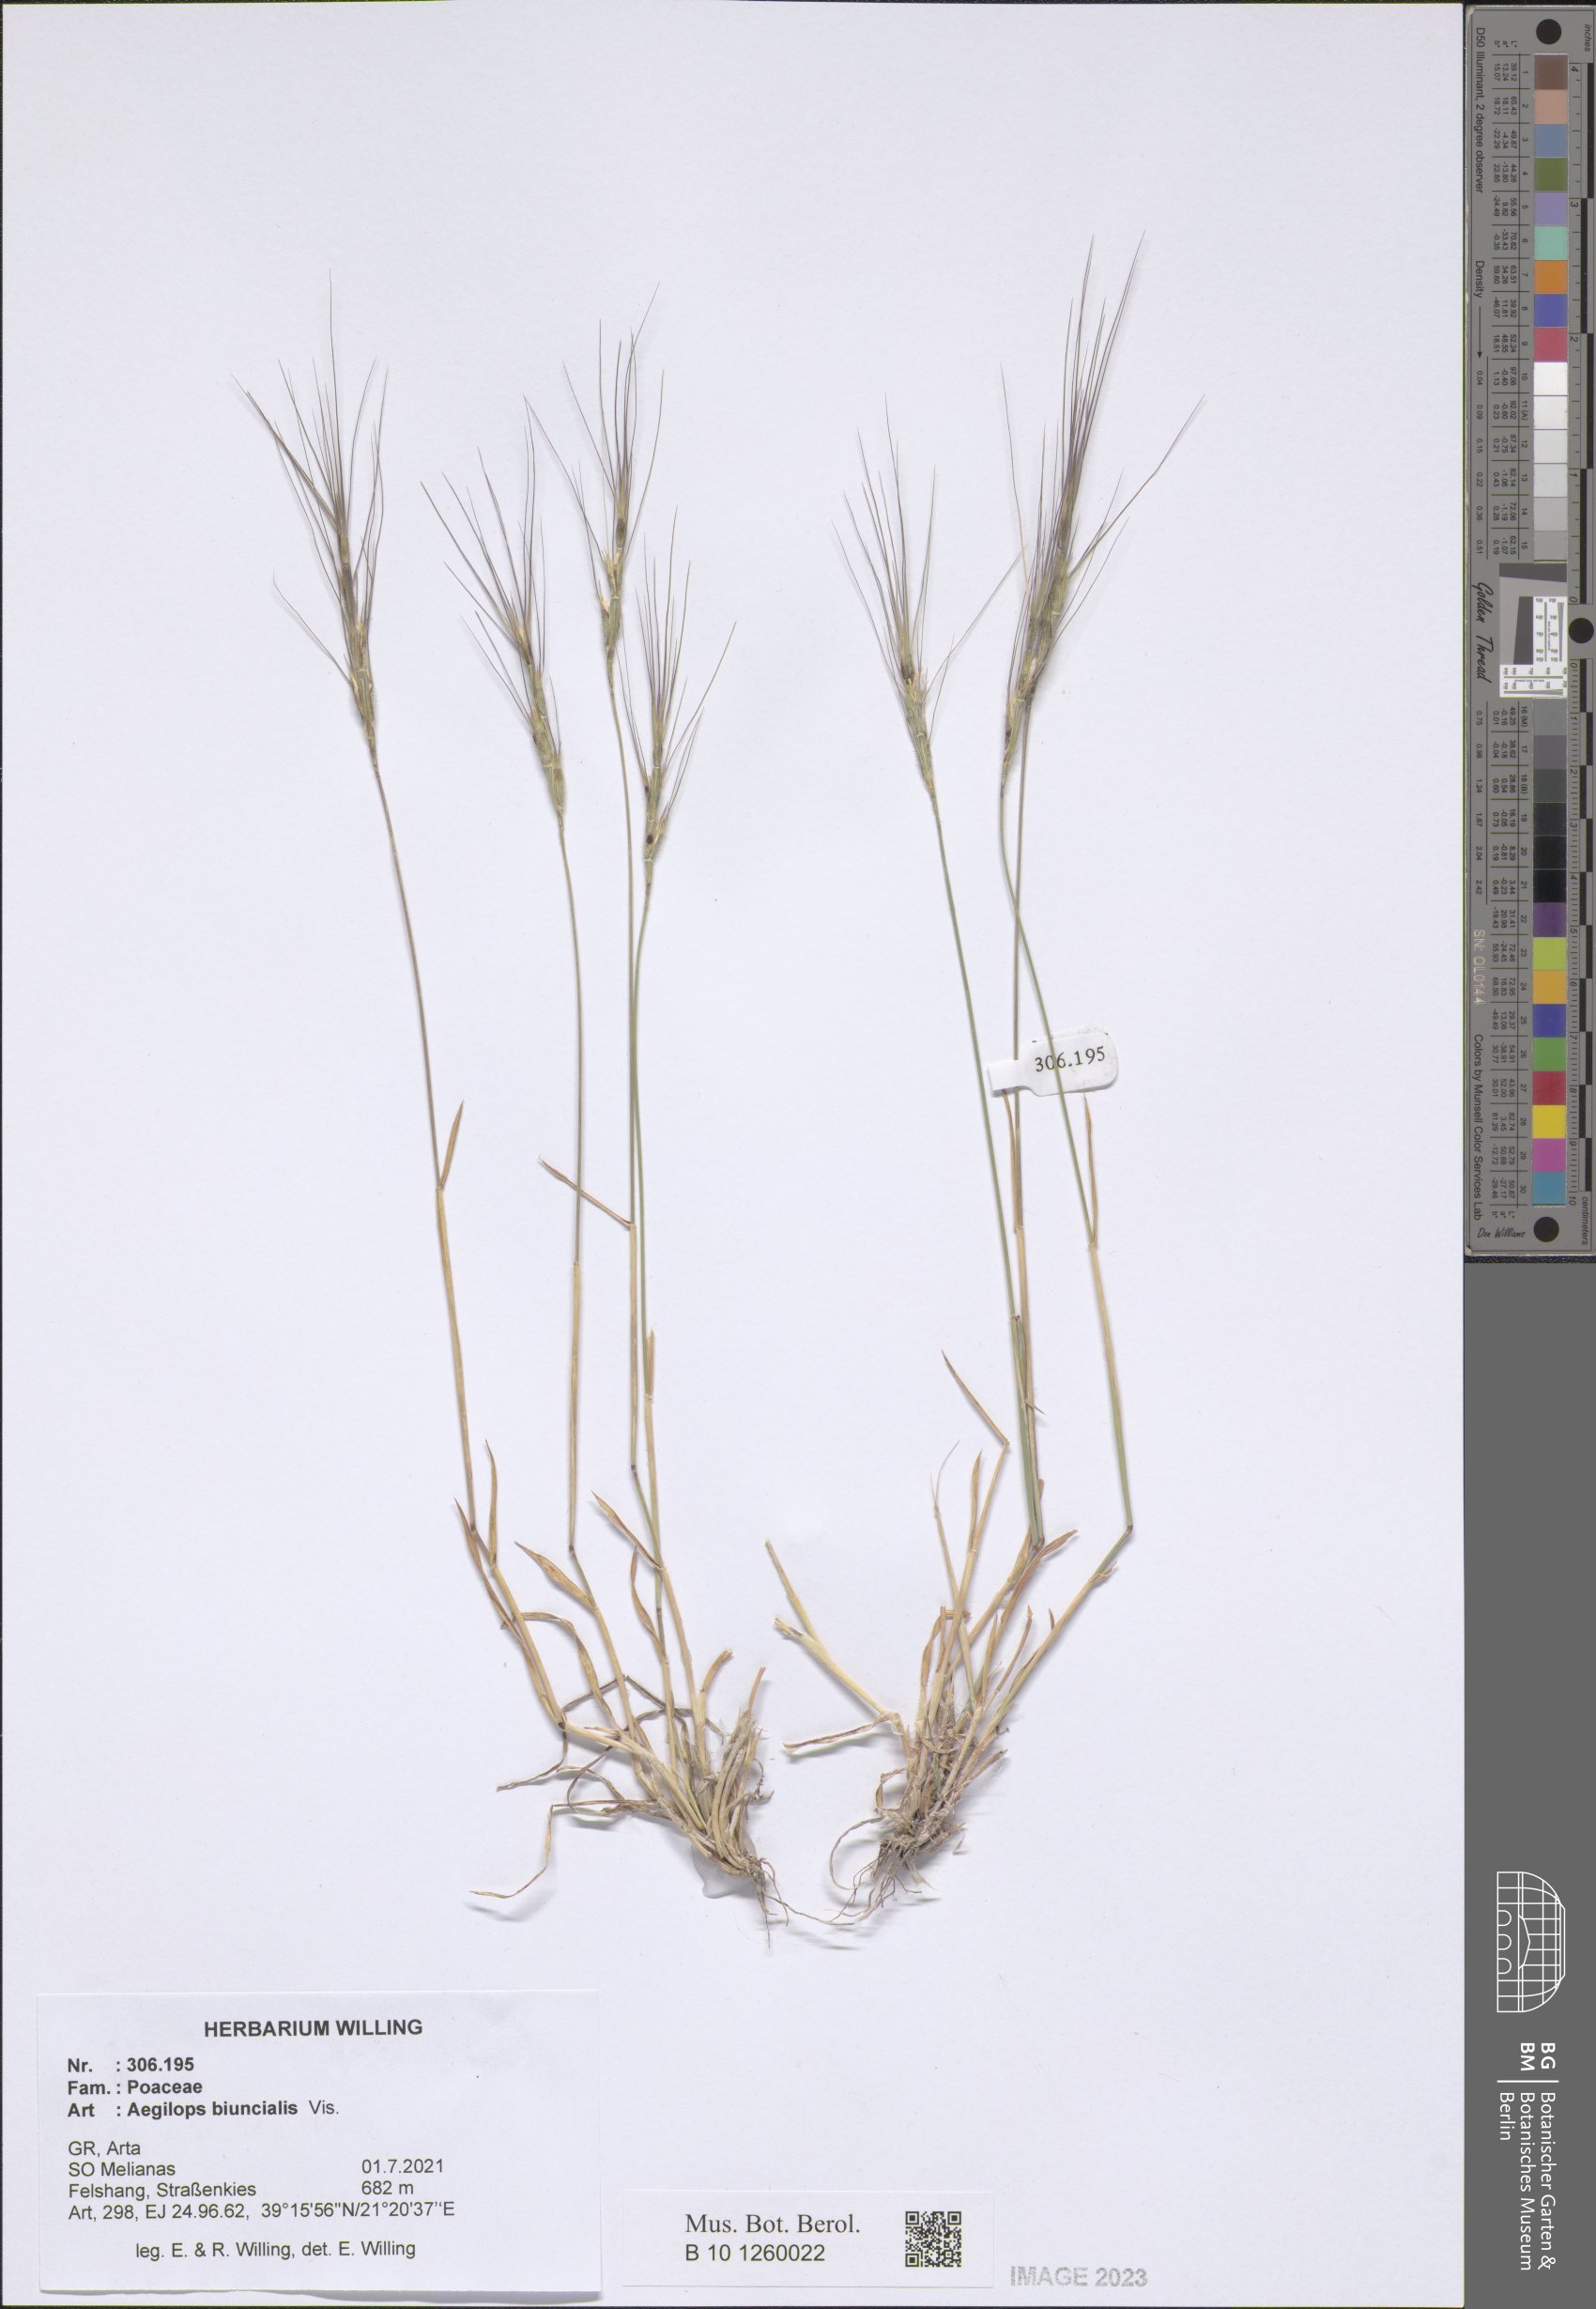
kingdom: Plantae
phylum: Tracheophyta
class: Liliopsida
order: Poales
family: Poaceae
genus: Aegilops
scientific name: Aegilops biuncialis
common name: Mediterranean aegilops
